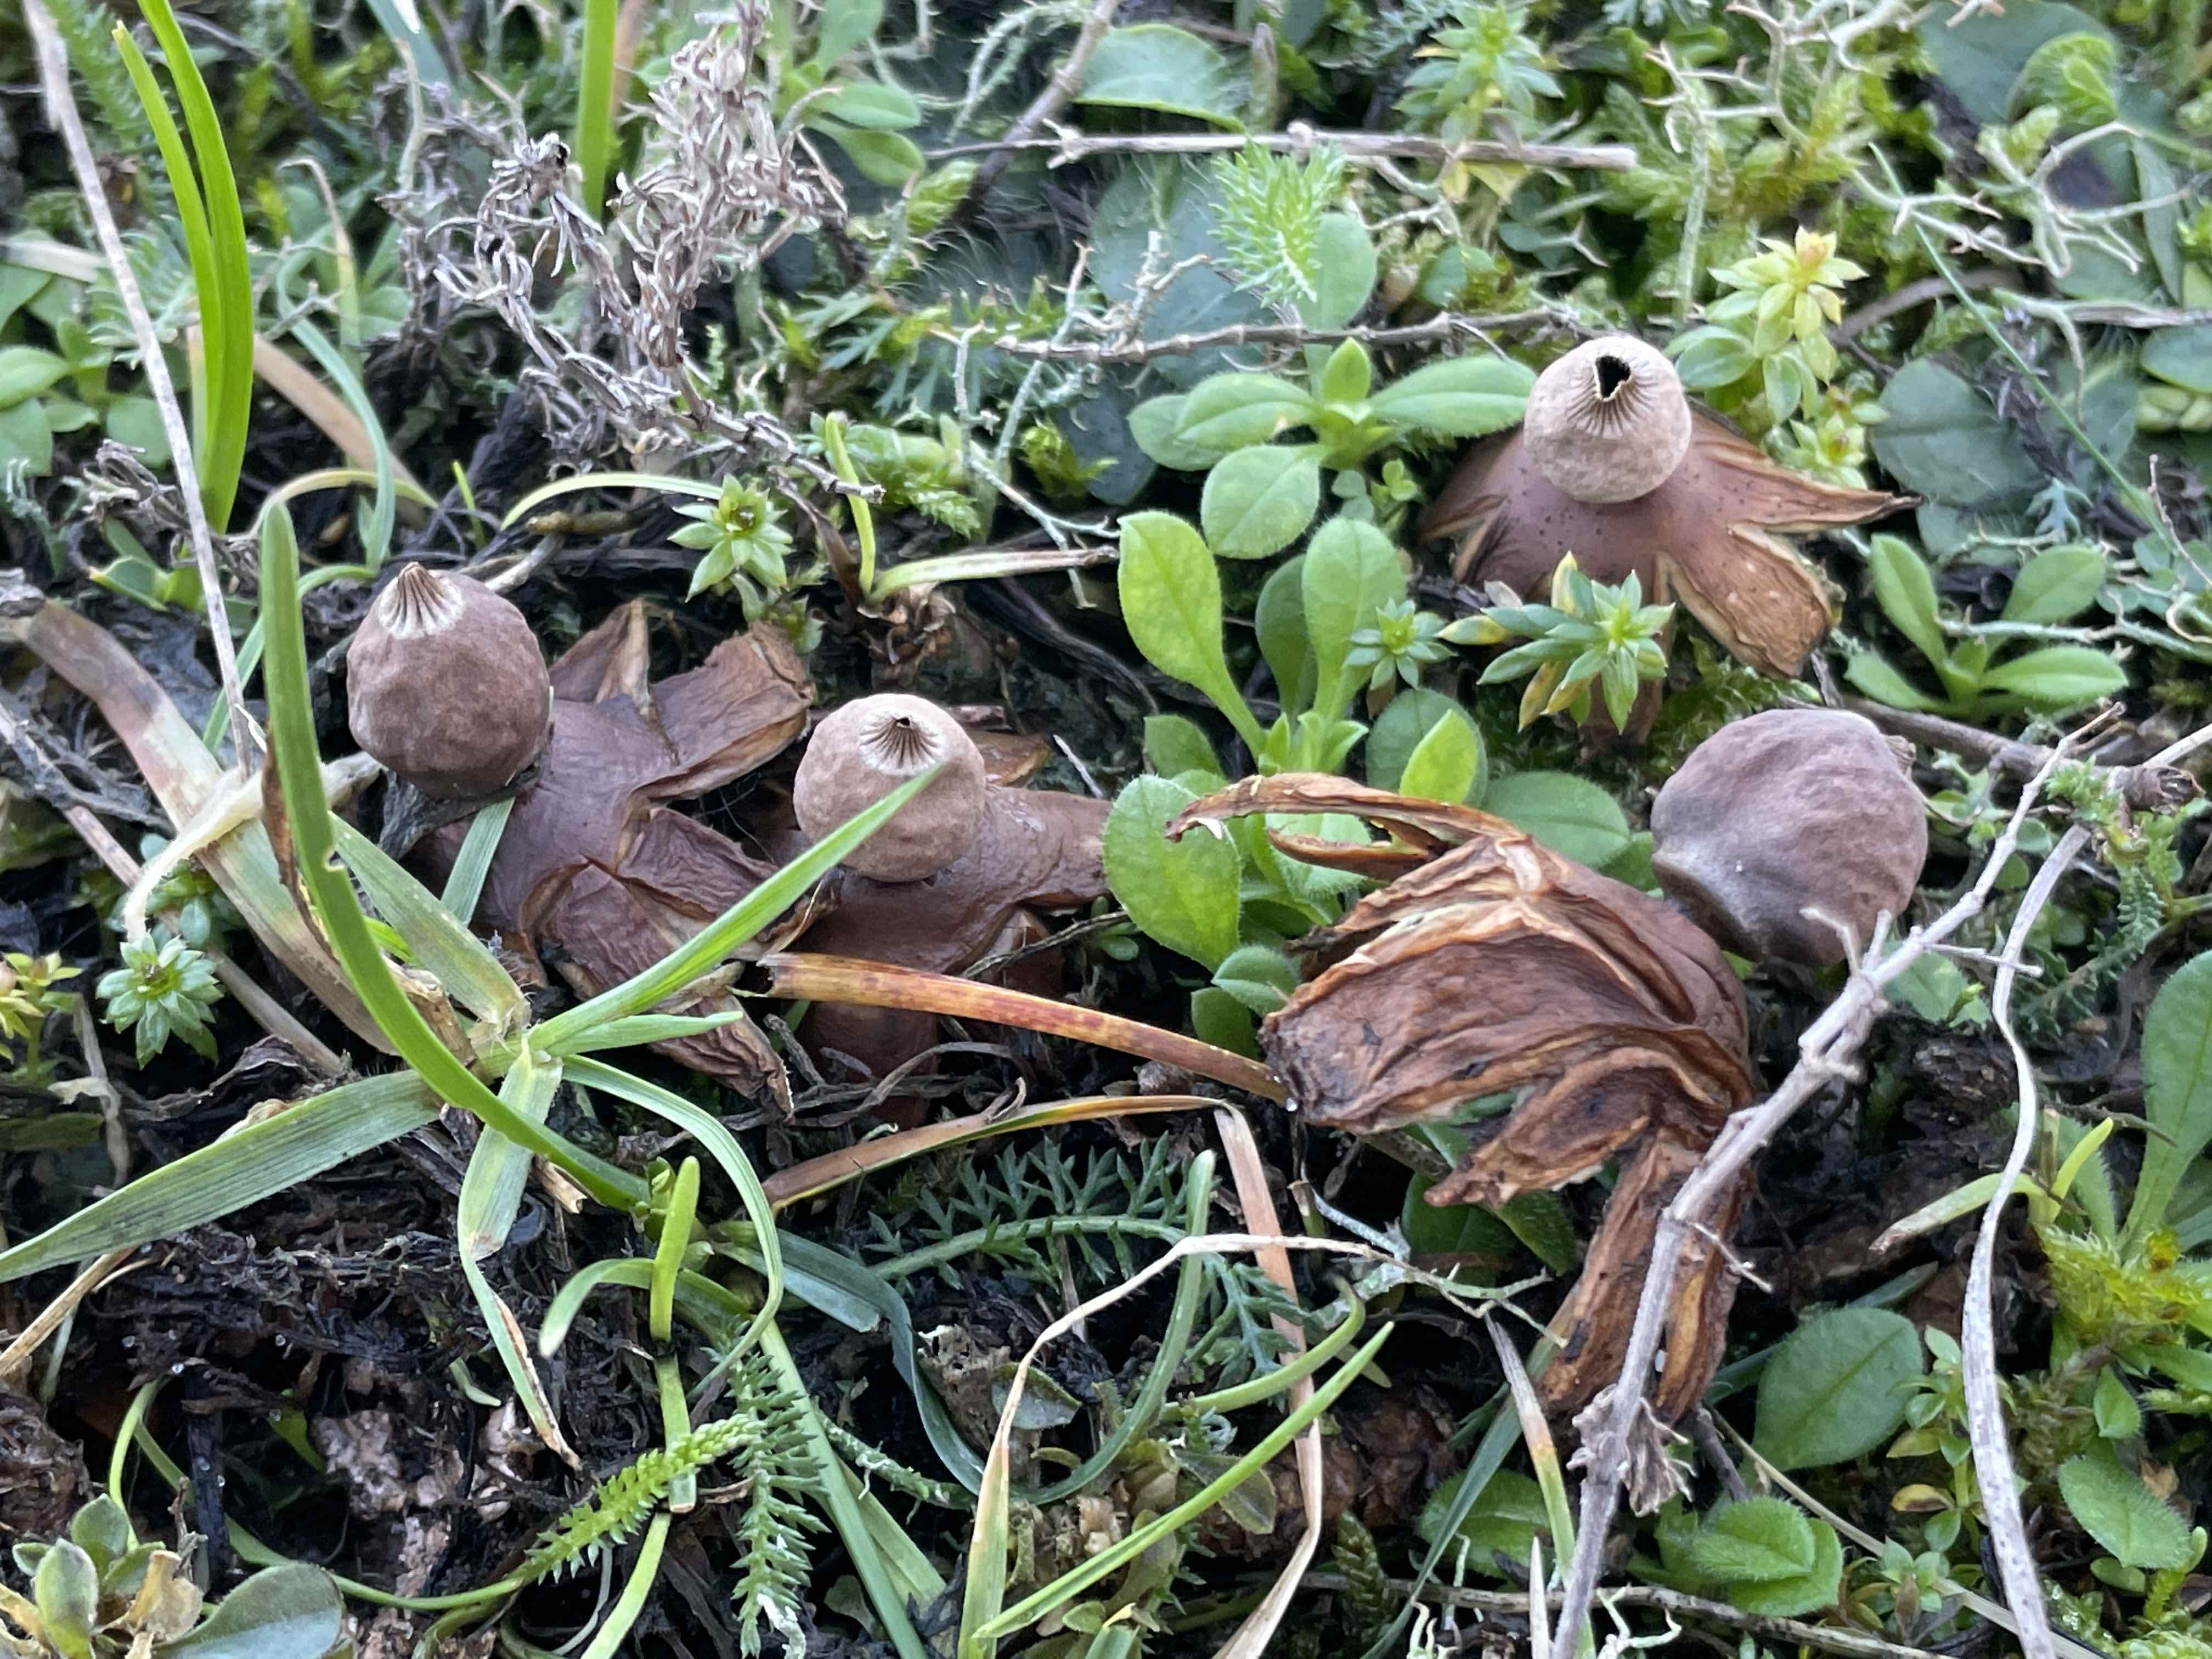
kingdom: Fungi
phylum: Basidiomycota
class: Agaricomycetes
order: Geastrales
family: Geastraceae
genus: Geastrum
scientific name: Geastrum striatum
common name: dværg-stjernebold
